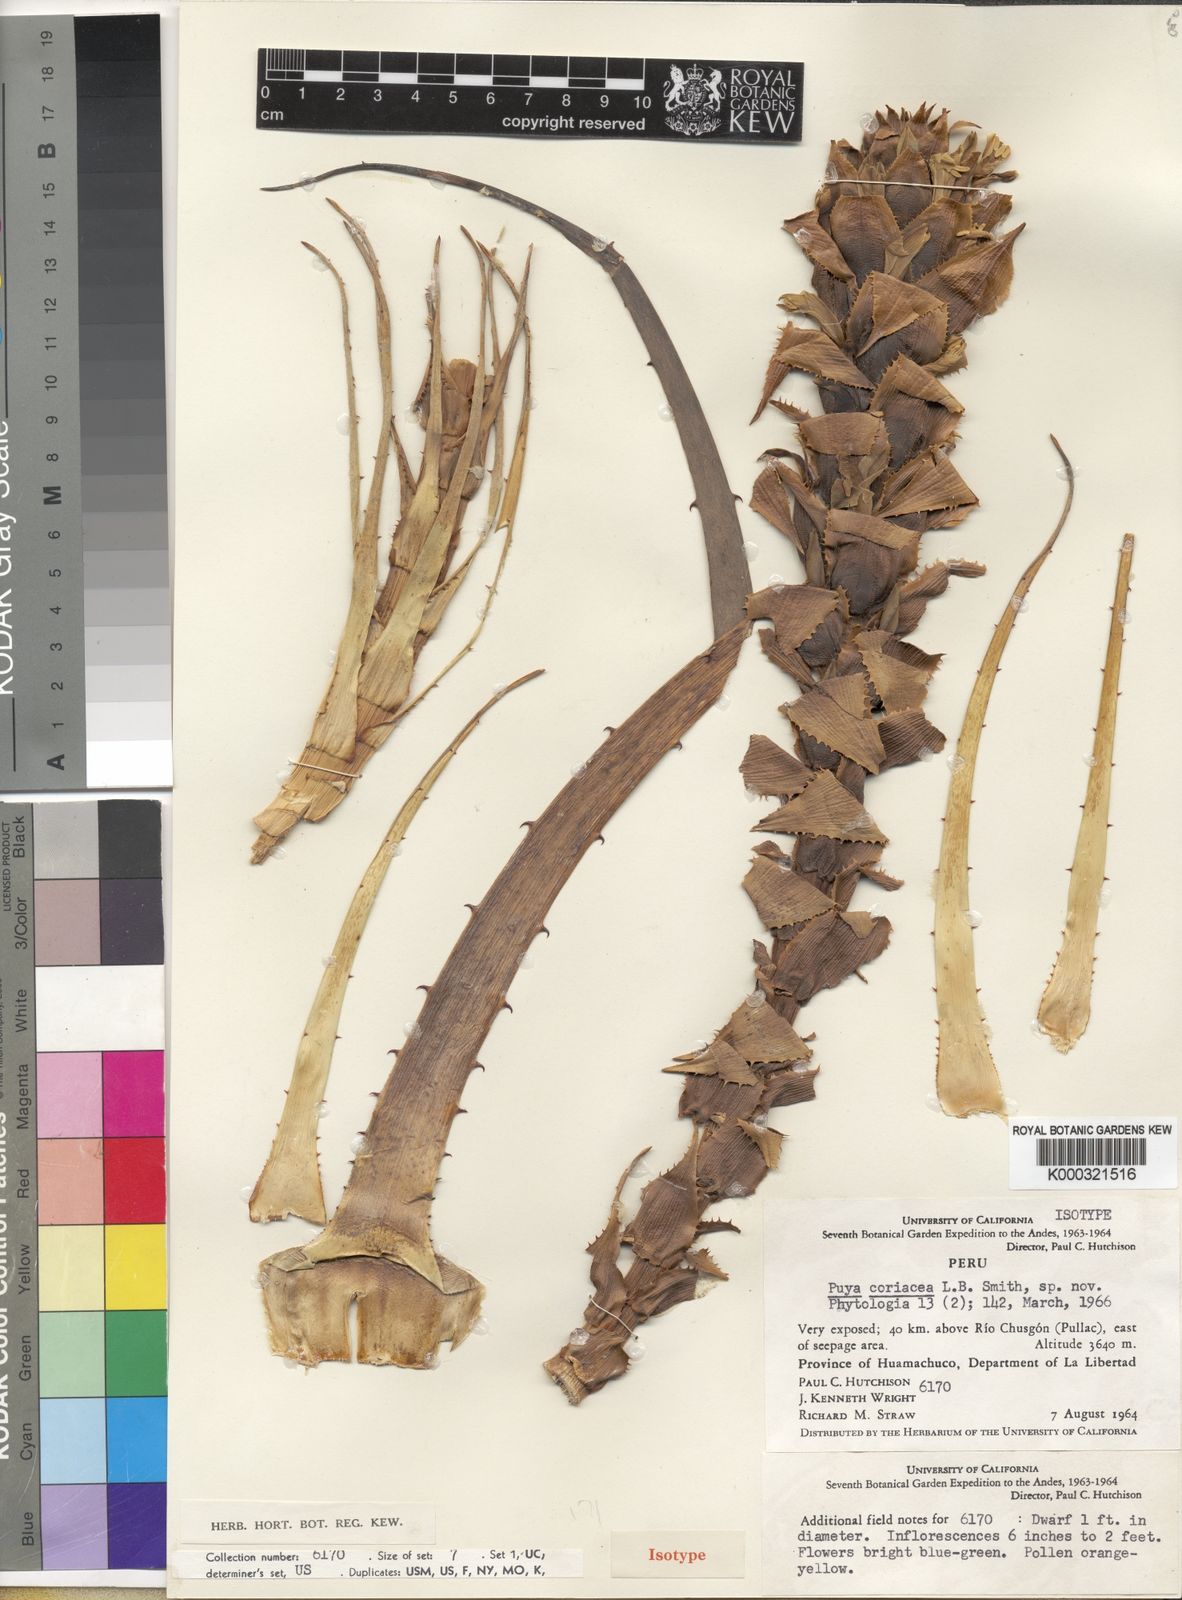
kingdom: Plantae
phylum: Tracheophyta
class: Liliopsida
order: Poales
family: Bromeliaceae
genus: Puya
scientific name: Puya coriacea
